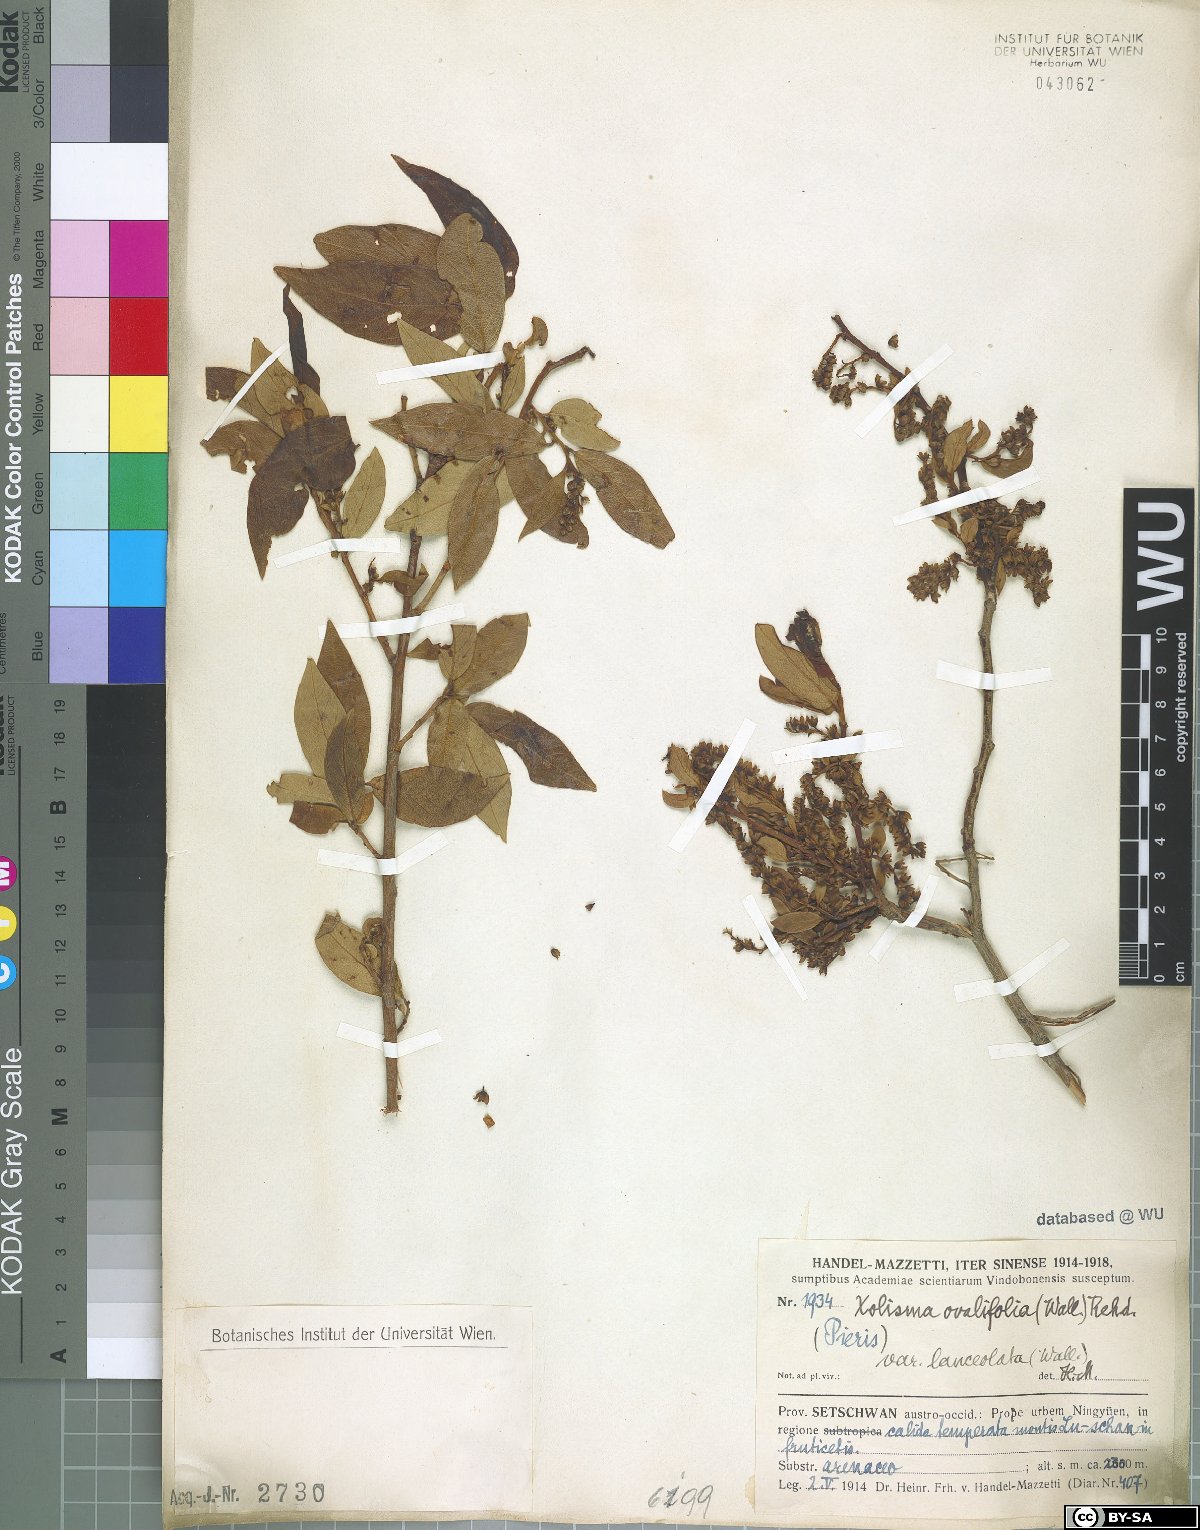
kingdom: Plantae
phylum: Tracheophyta
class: Magnoliopsida
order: Ericales
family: Ericaceae
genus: Lyonia
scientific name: Lyonia ovalifolia
